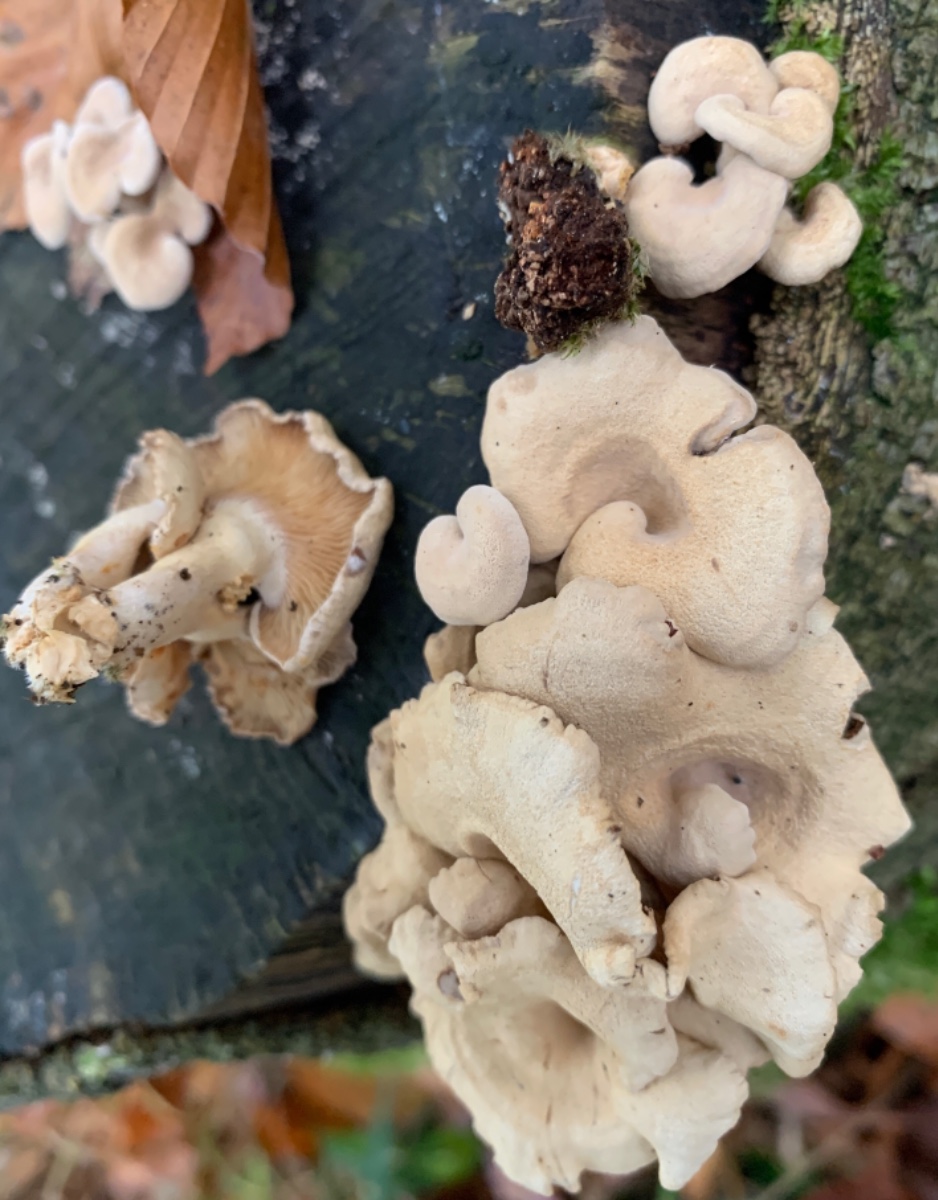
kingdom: Fungi
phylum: Basidiomycota
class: Agaricomycetes
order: Agaricales
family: Mycenaceae
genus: Panellus
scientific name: Panellus stipticus
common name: kliddet epaulethat
